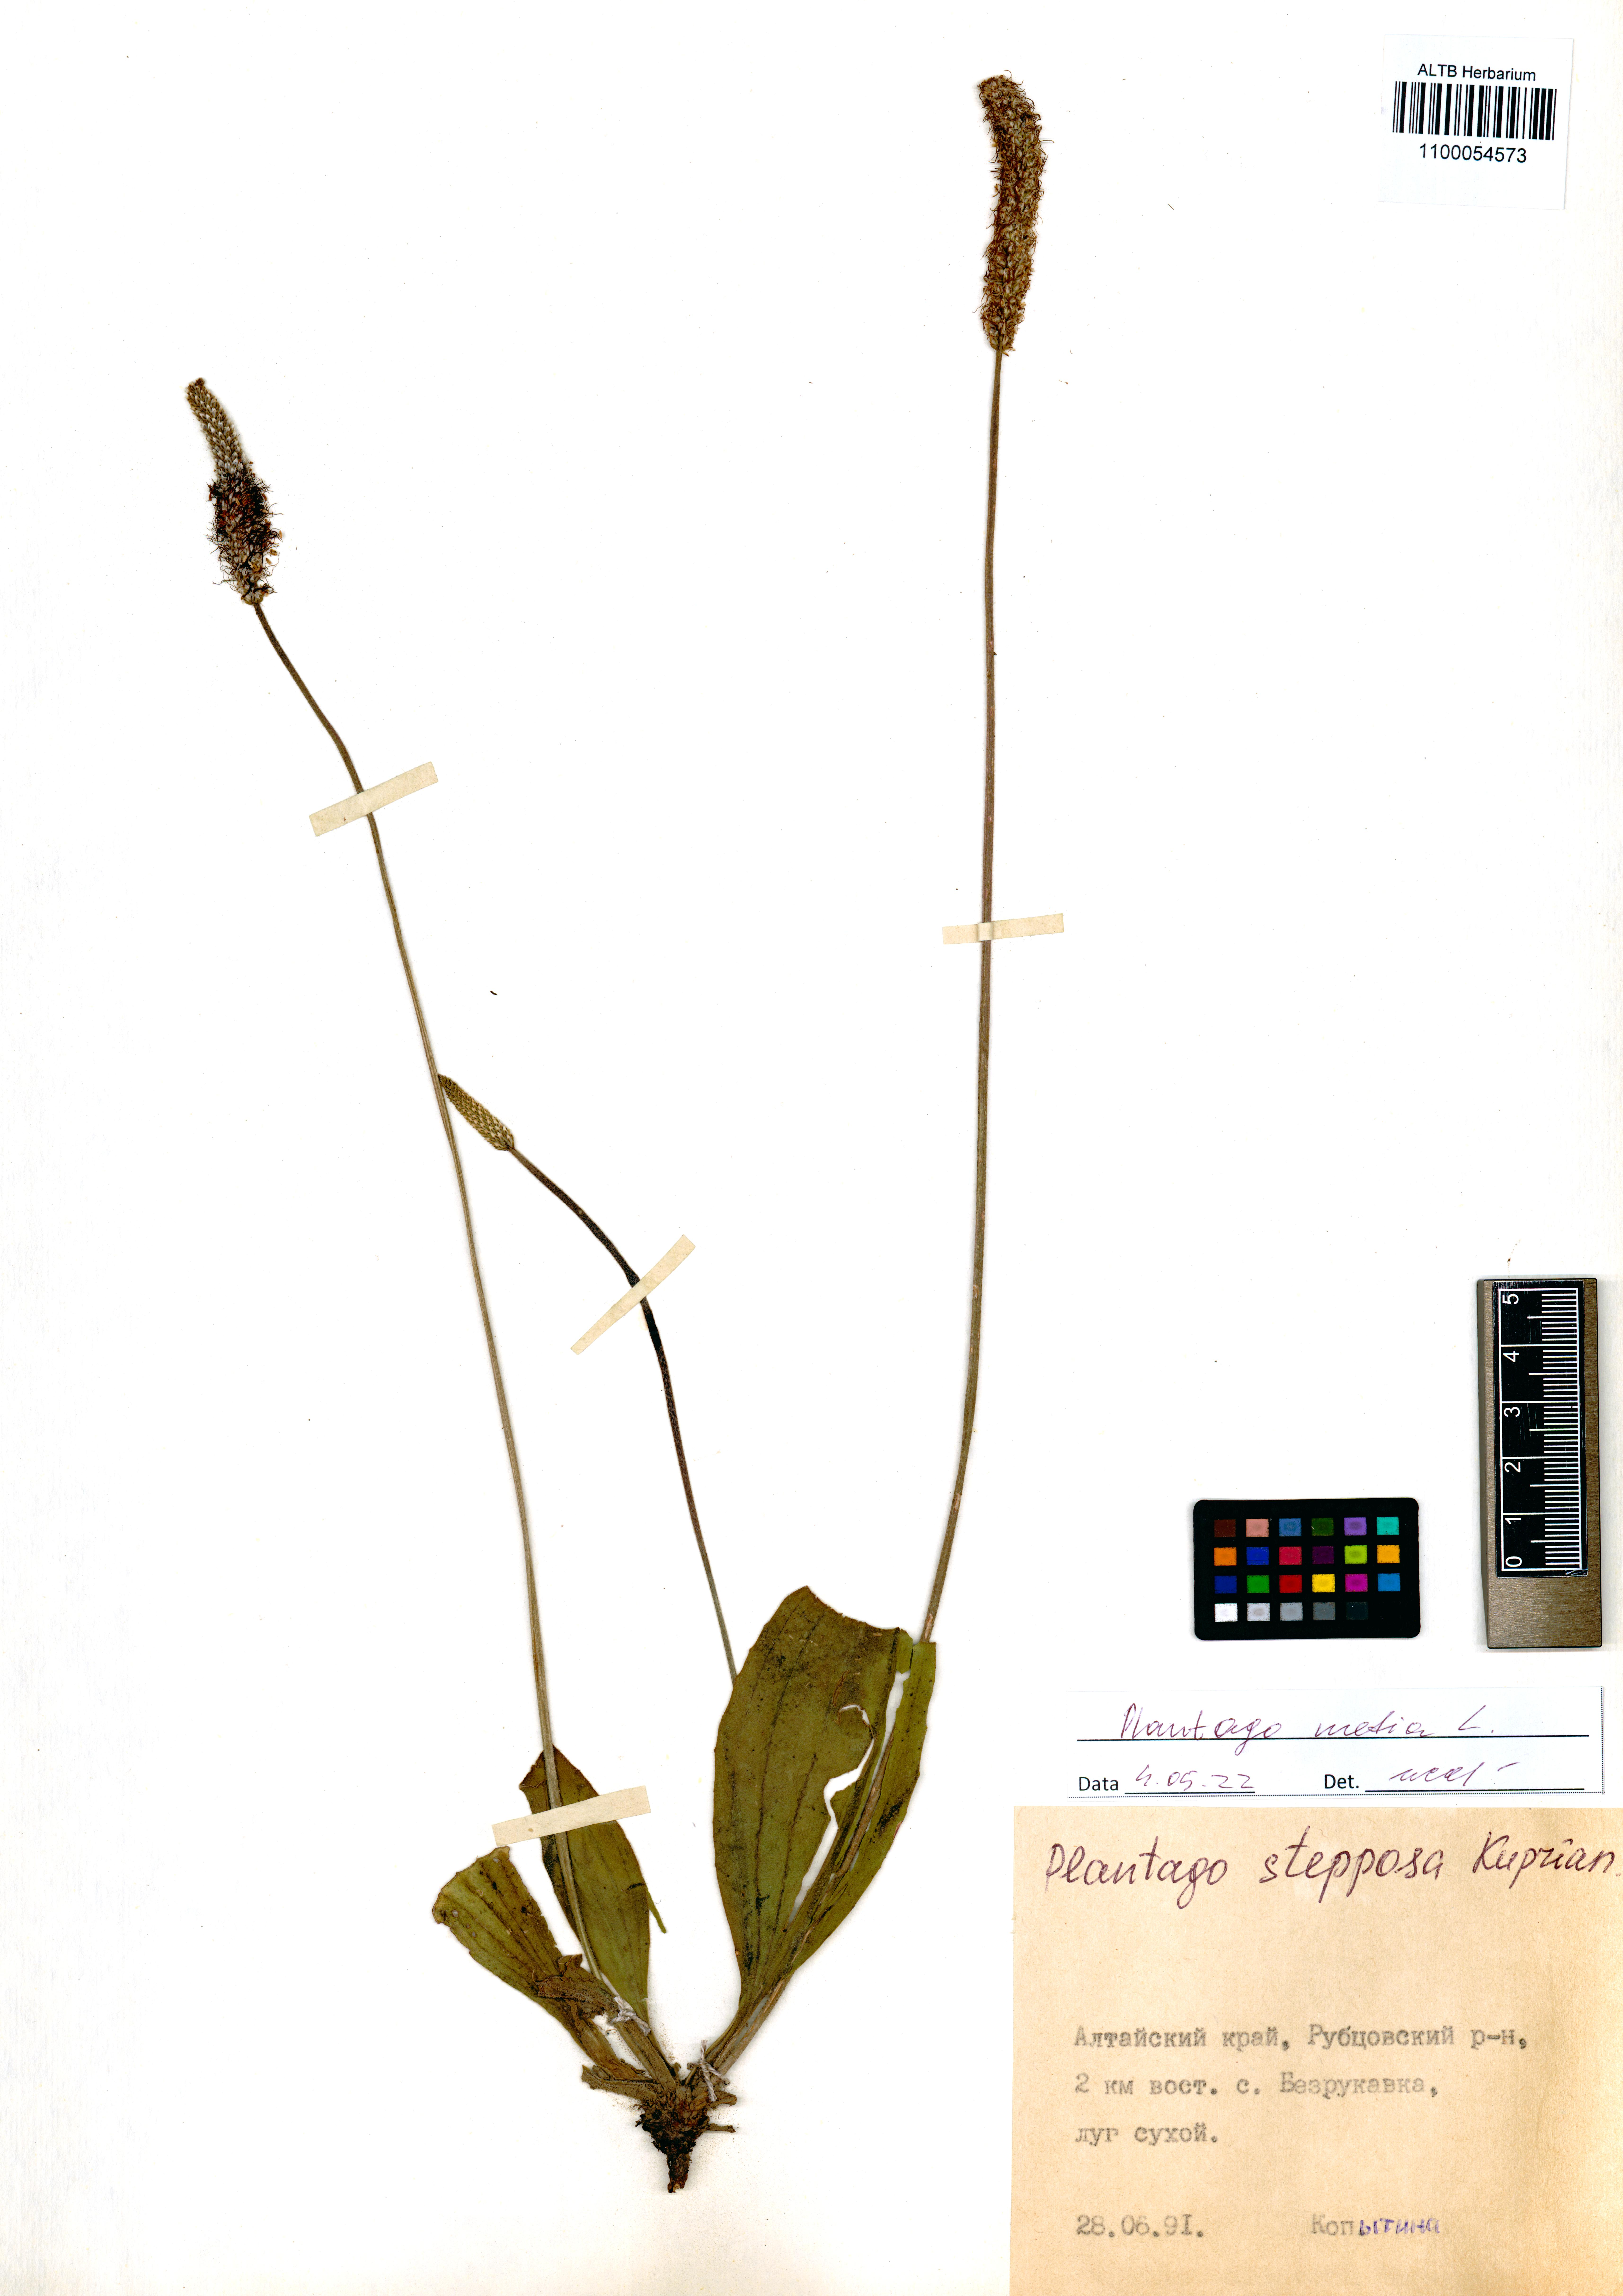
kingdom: Plantae
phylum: Tracheophyta
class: Magnoliopsida
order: Lamiales
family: Plantaginaceae
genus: Plantago
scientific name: Plantago media
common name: Hoary plantain
